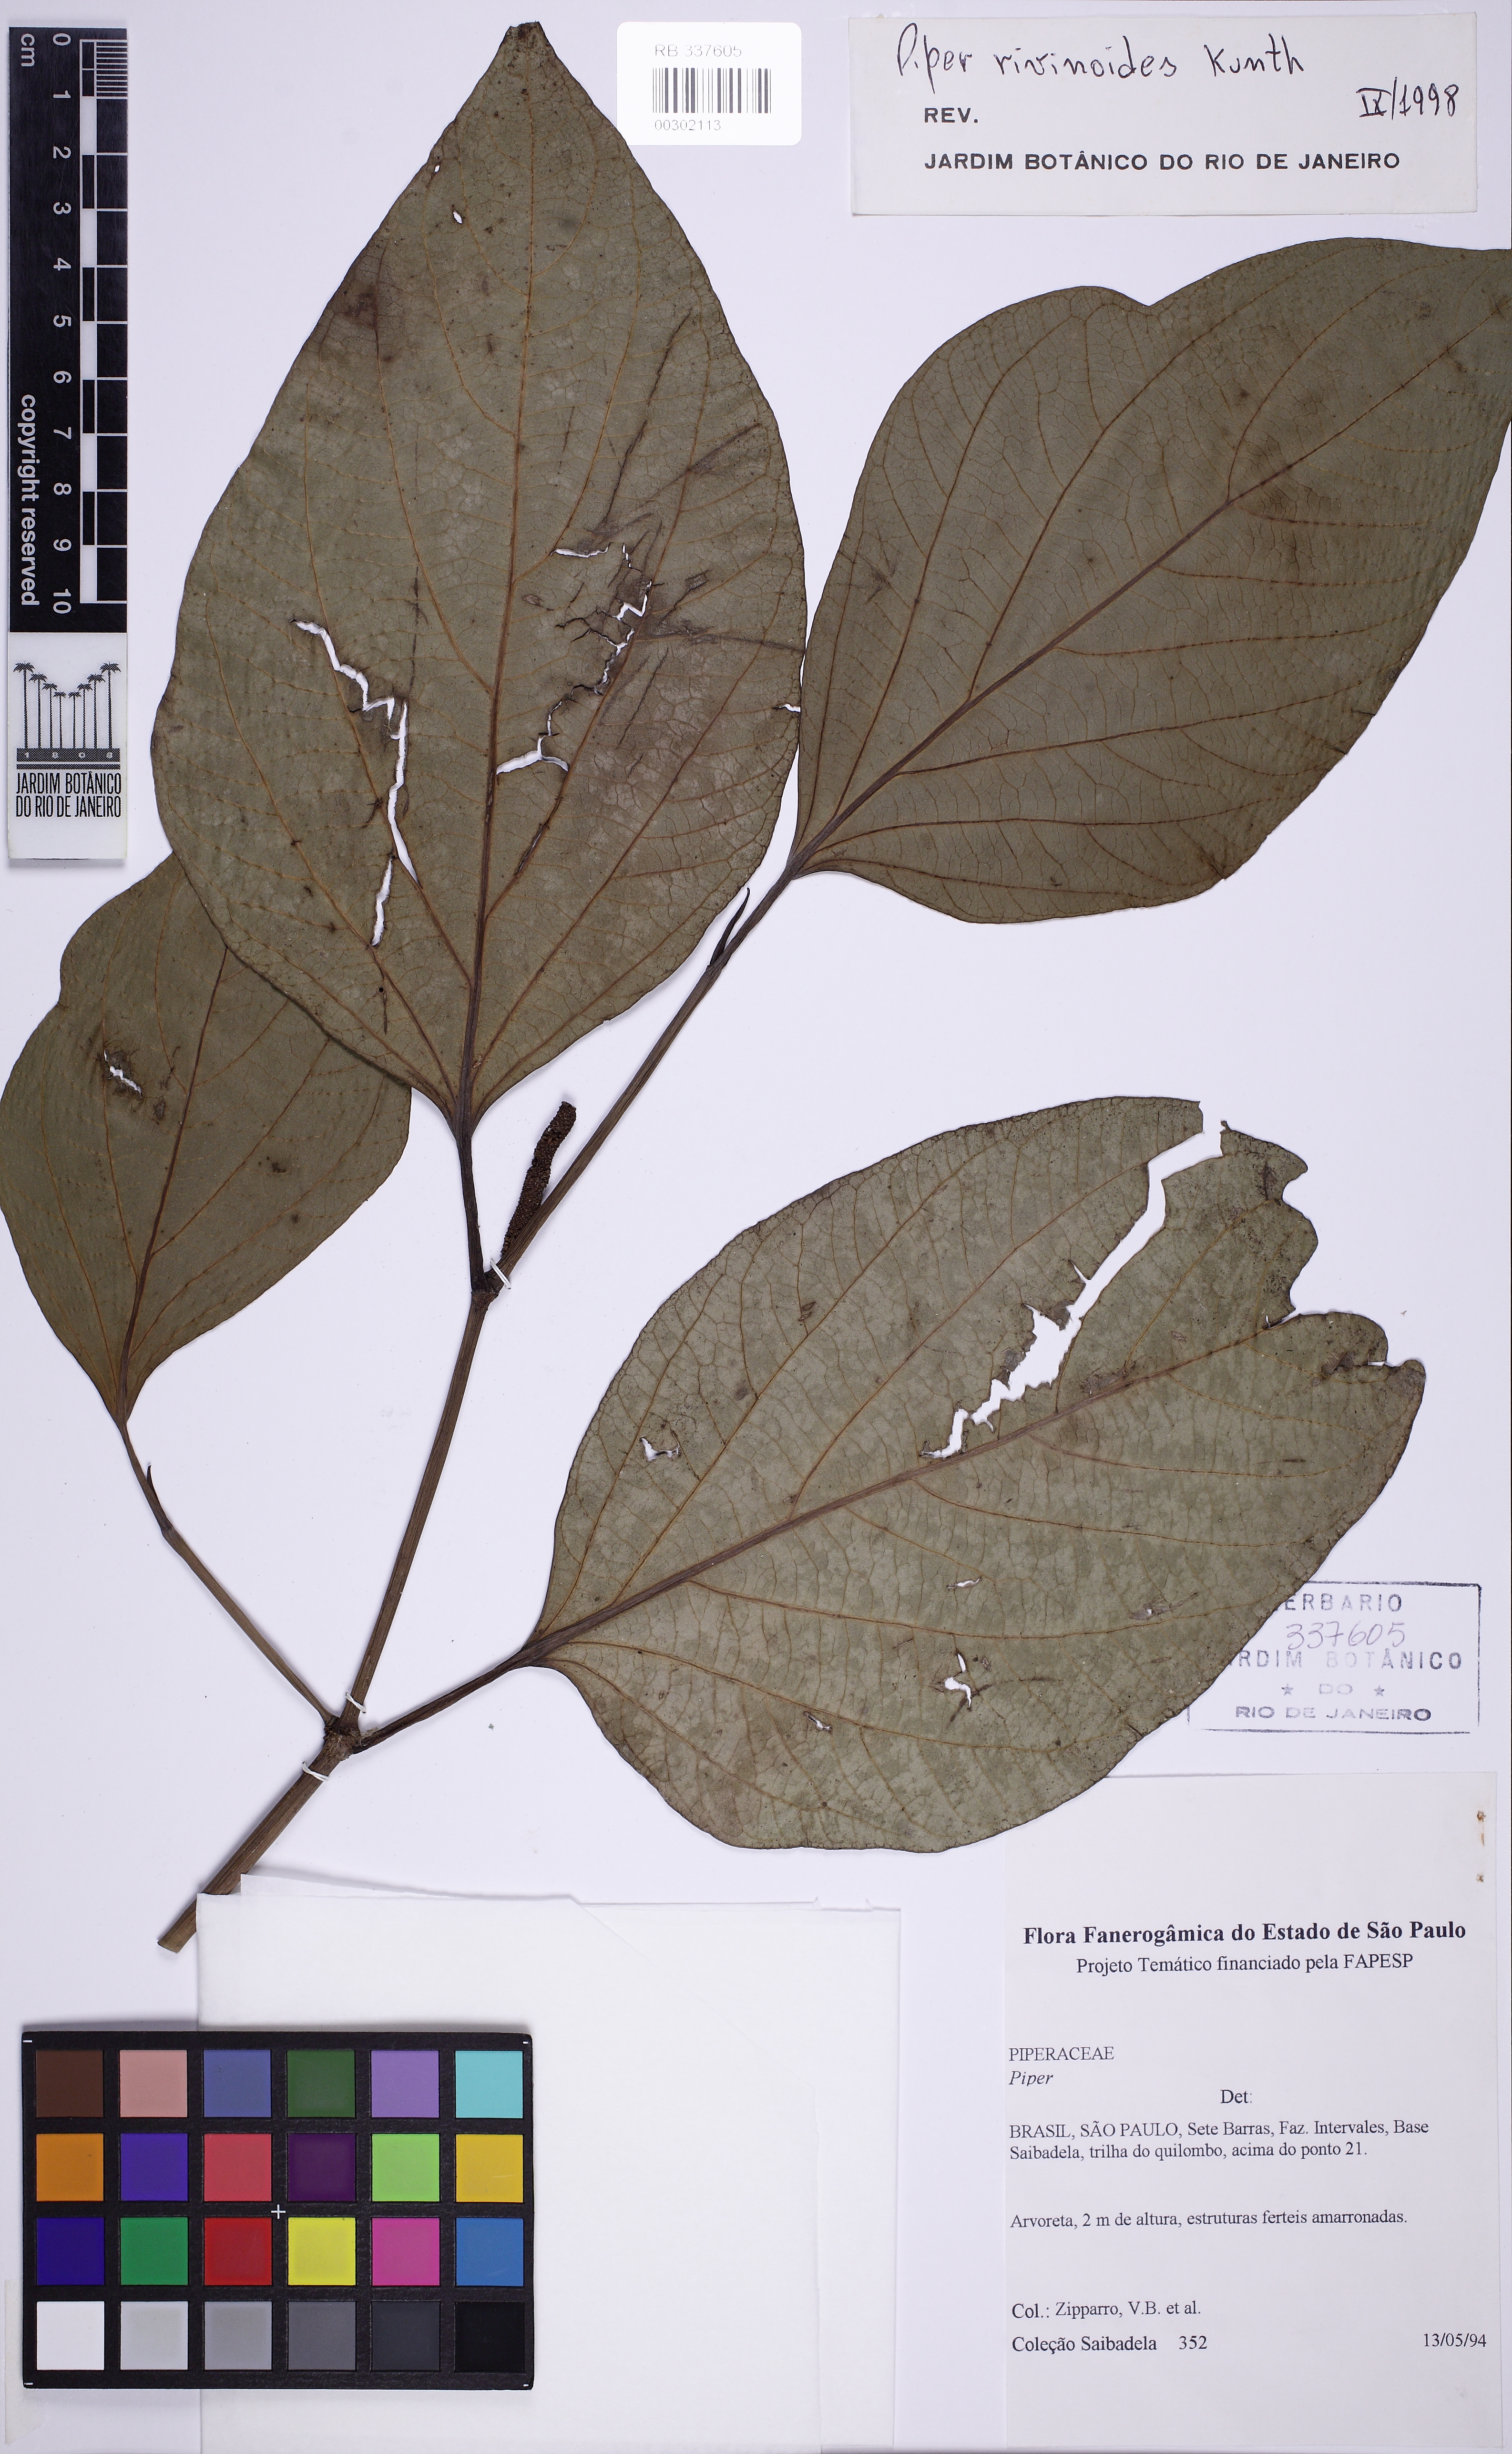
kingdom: Plantae
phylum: Tracheophyta
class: Magnoliopsida
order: Piperales
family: Piperaceae
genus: Piper
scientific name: Piper rivinoides
